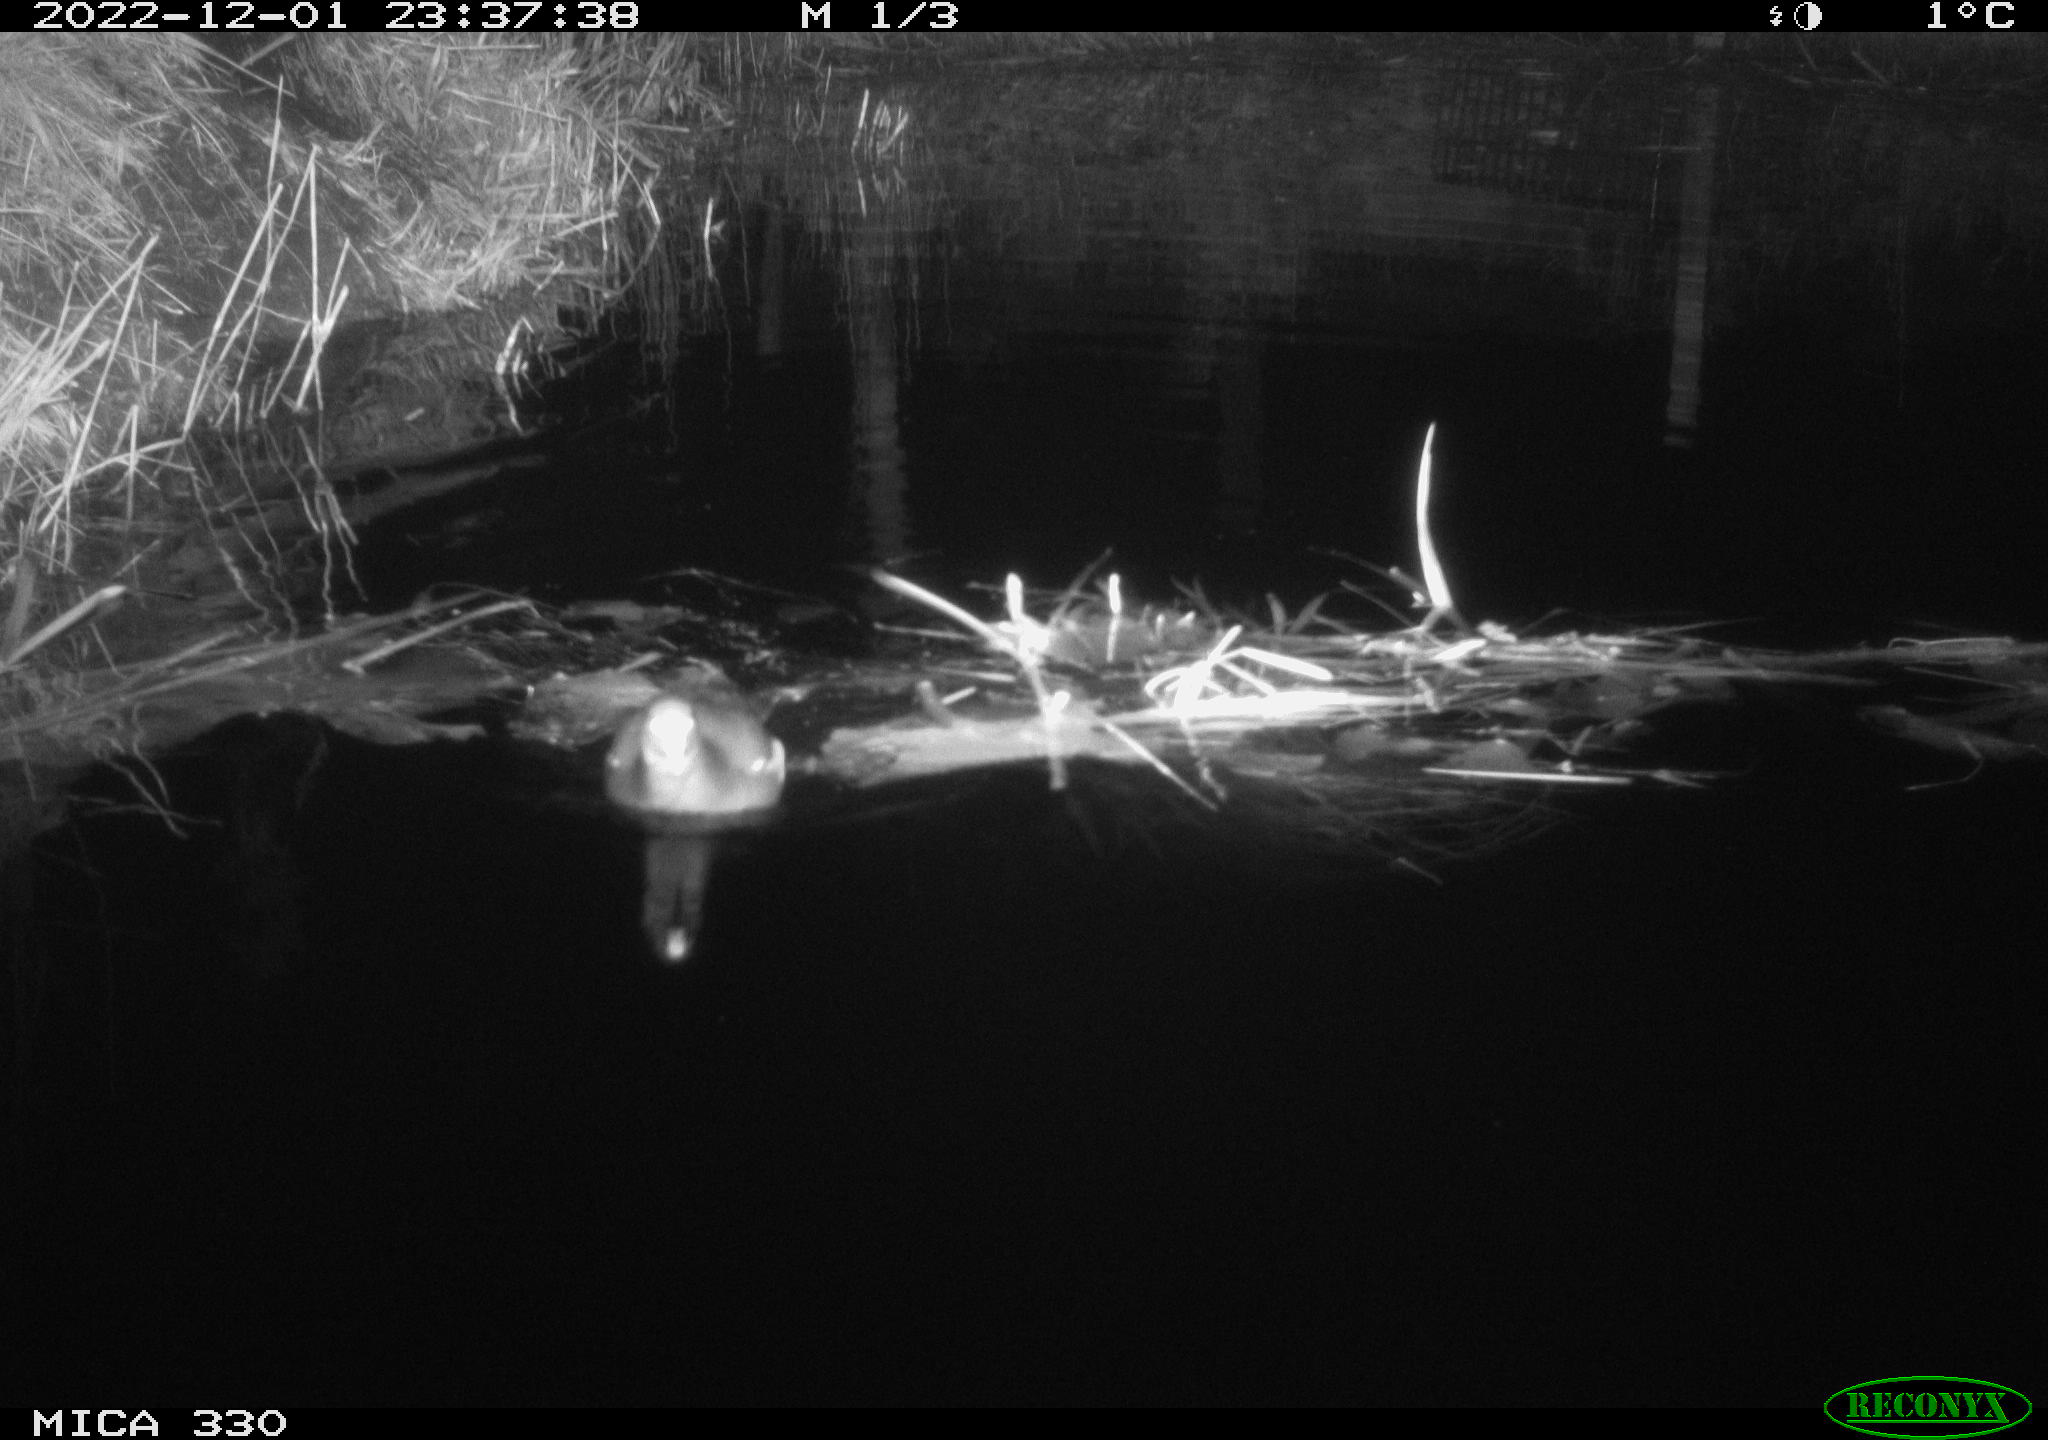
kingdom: Animalia
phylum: Chordata
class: Aves
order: Gruiformes
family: Rallidae
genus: Gallinula
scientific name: Gallinula chloropus
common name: Common moorhen
